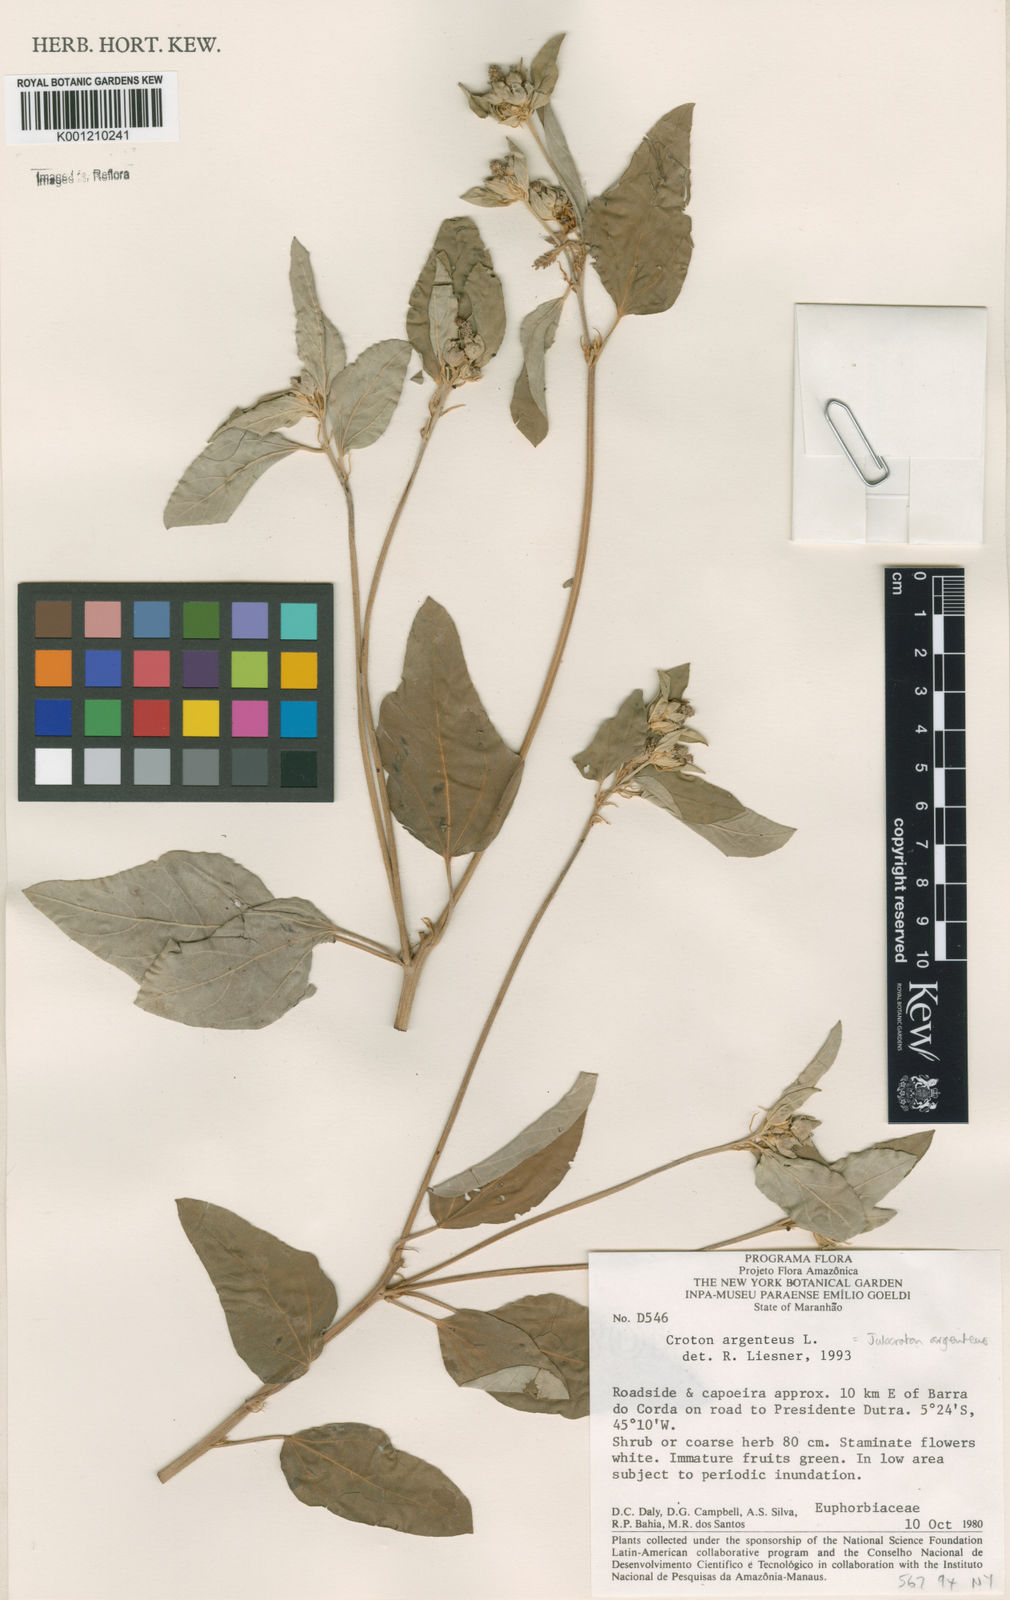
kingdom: Plantae
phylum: Tracheophyta
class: Magnoliopsida
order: Malpighiales
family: Euphorbiaceae
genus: Croton
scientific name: Croton argenteus
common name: Silver july croton
